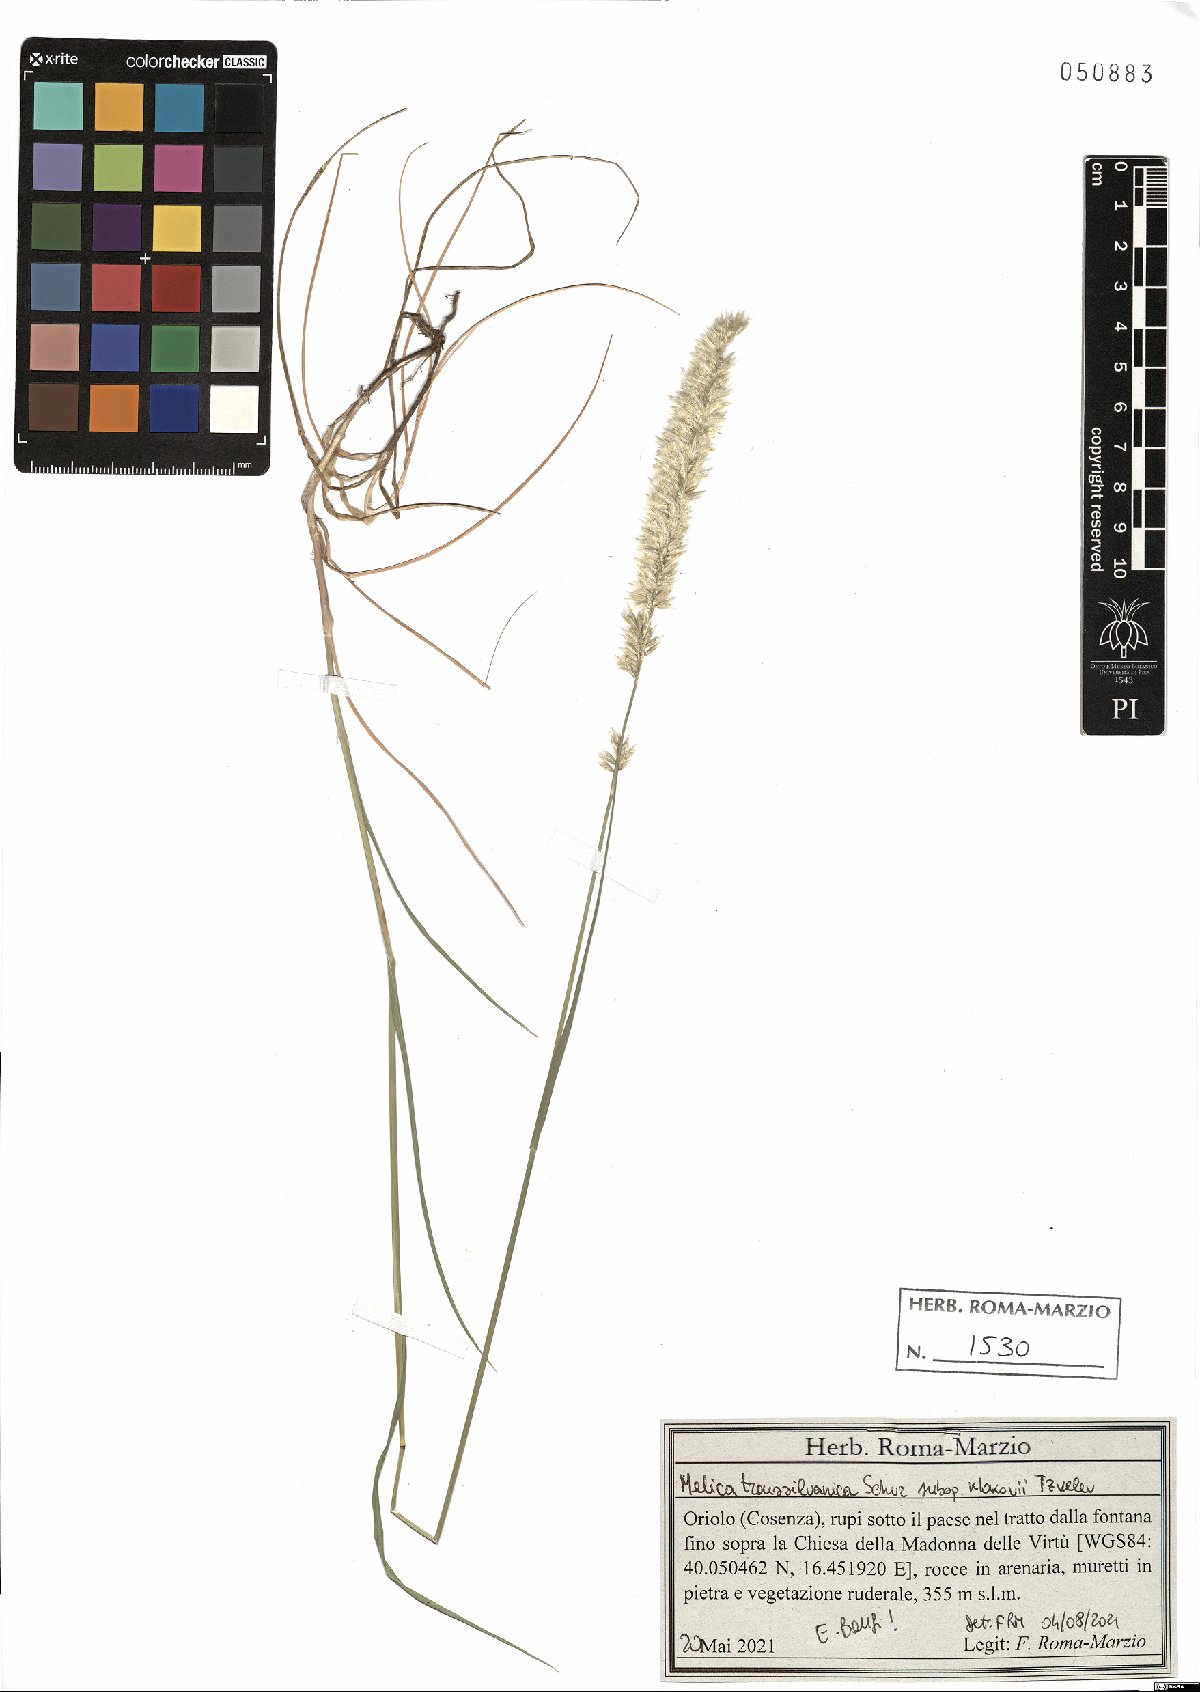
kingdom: Plantae
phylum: Tracheophyta
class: Liliopsida
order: Poales
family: Poaceae
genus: Melica
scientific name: Melica transsilvanica
